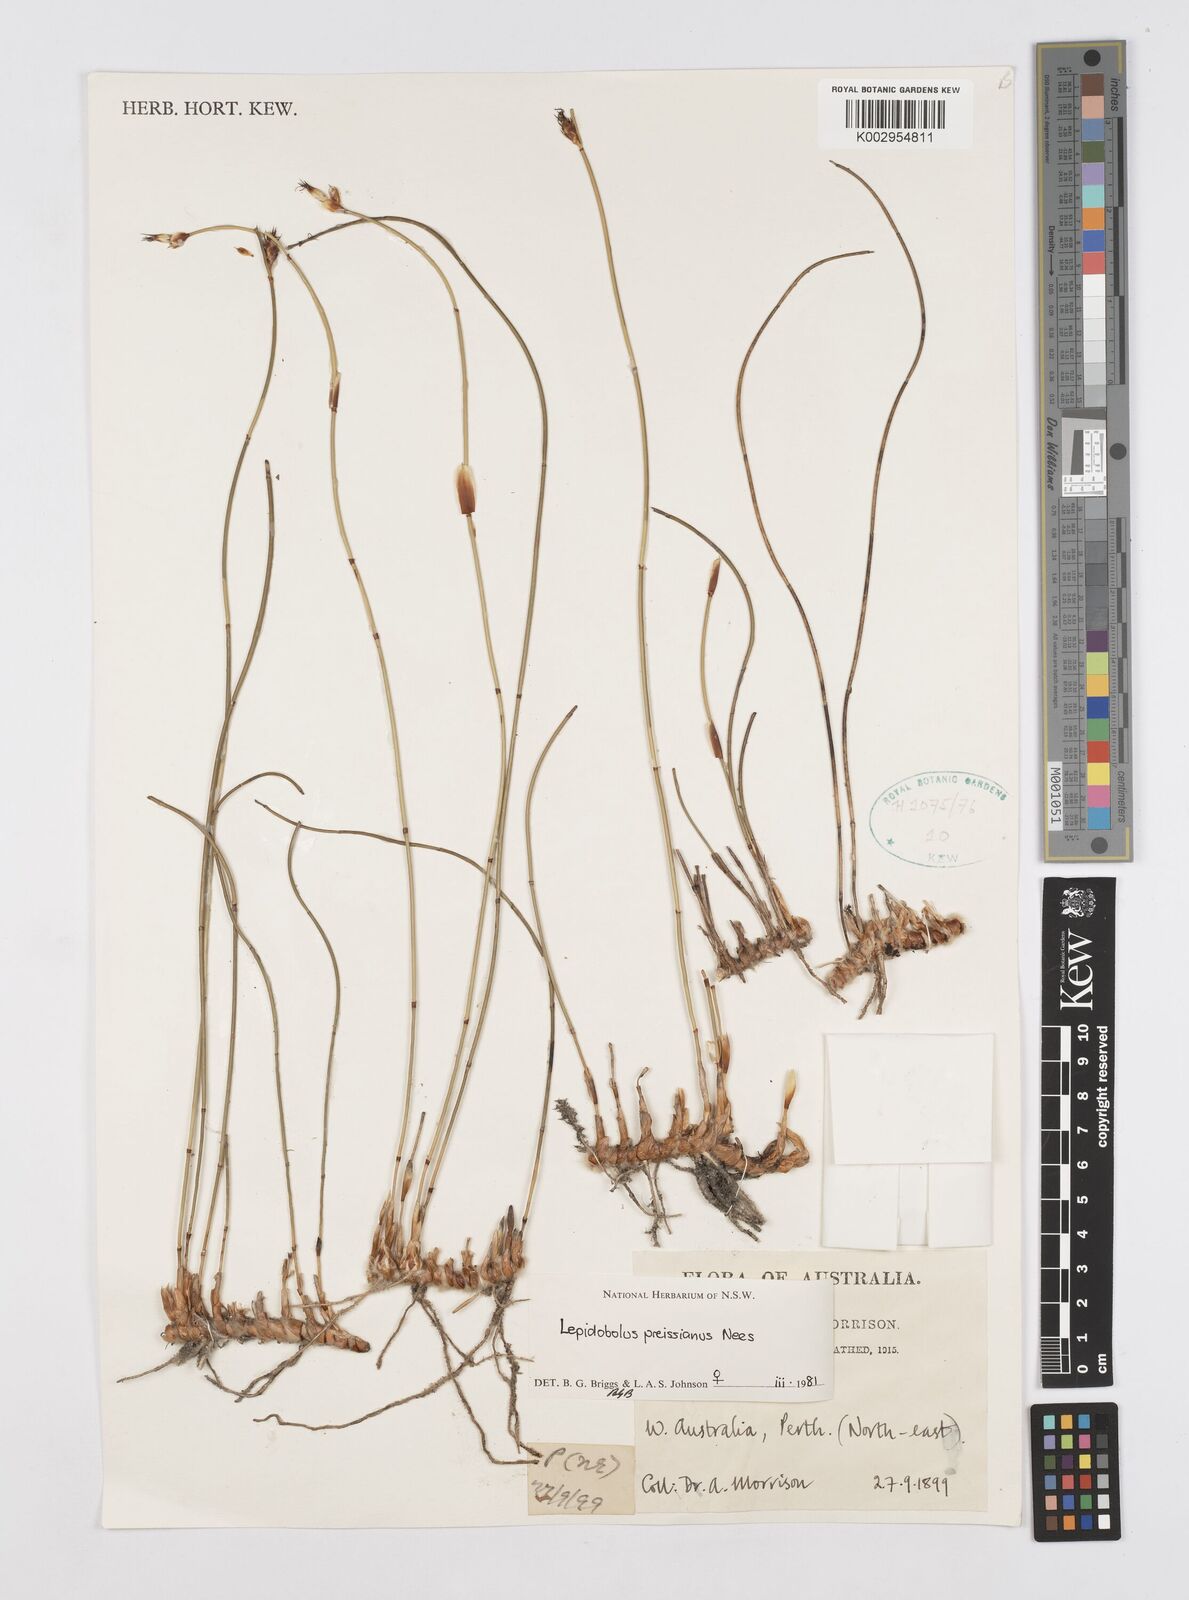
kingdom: Plantae
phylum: Tracheophyta
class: Liliopsida
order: Poales
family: Restionaceae
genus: Lepidobolus
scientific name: Lepidobolus preissianus
